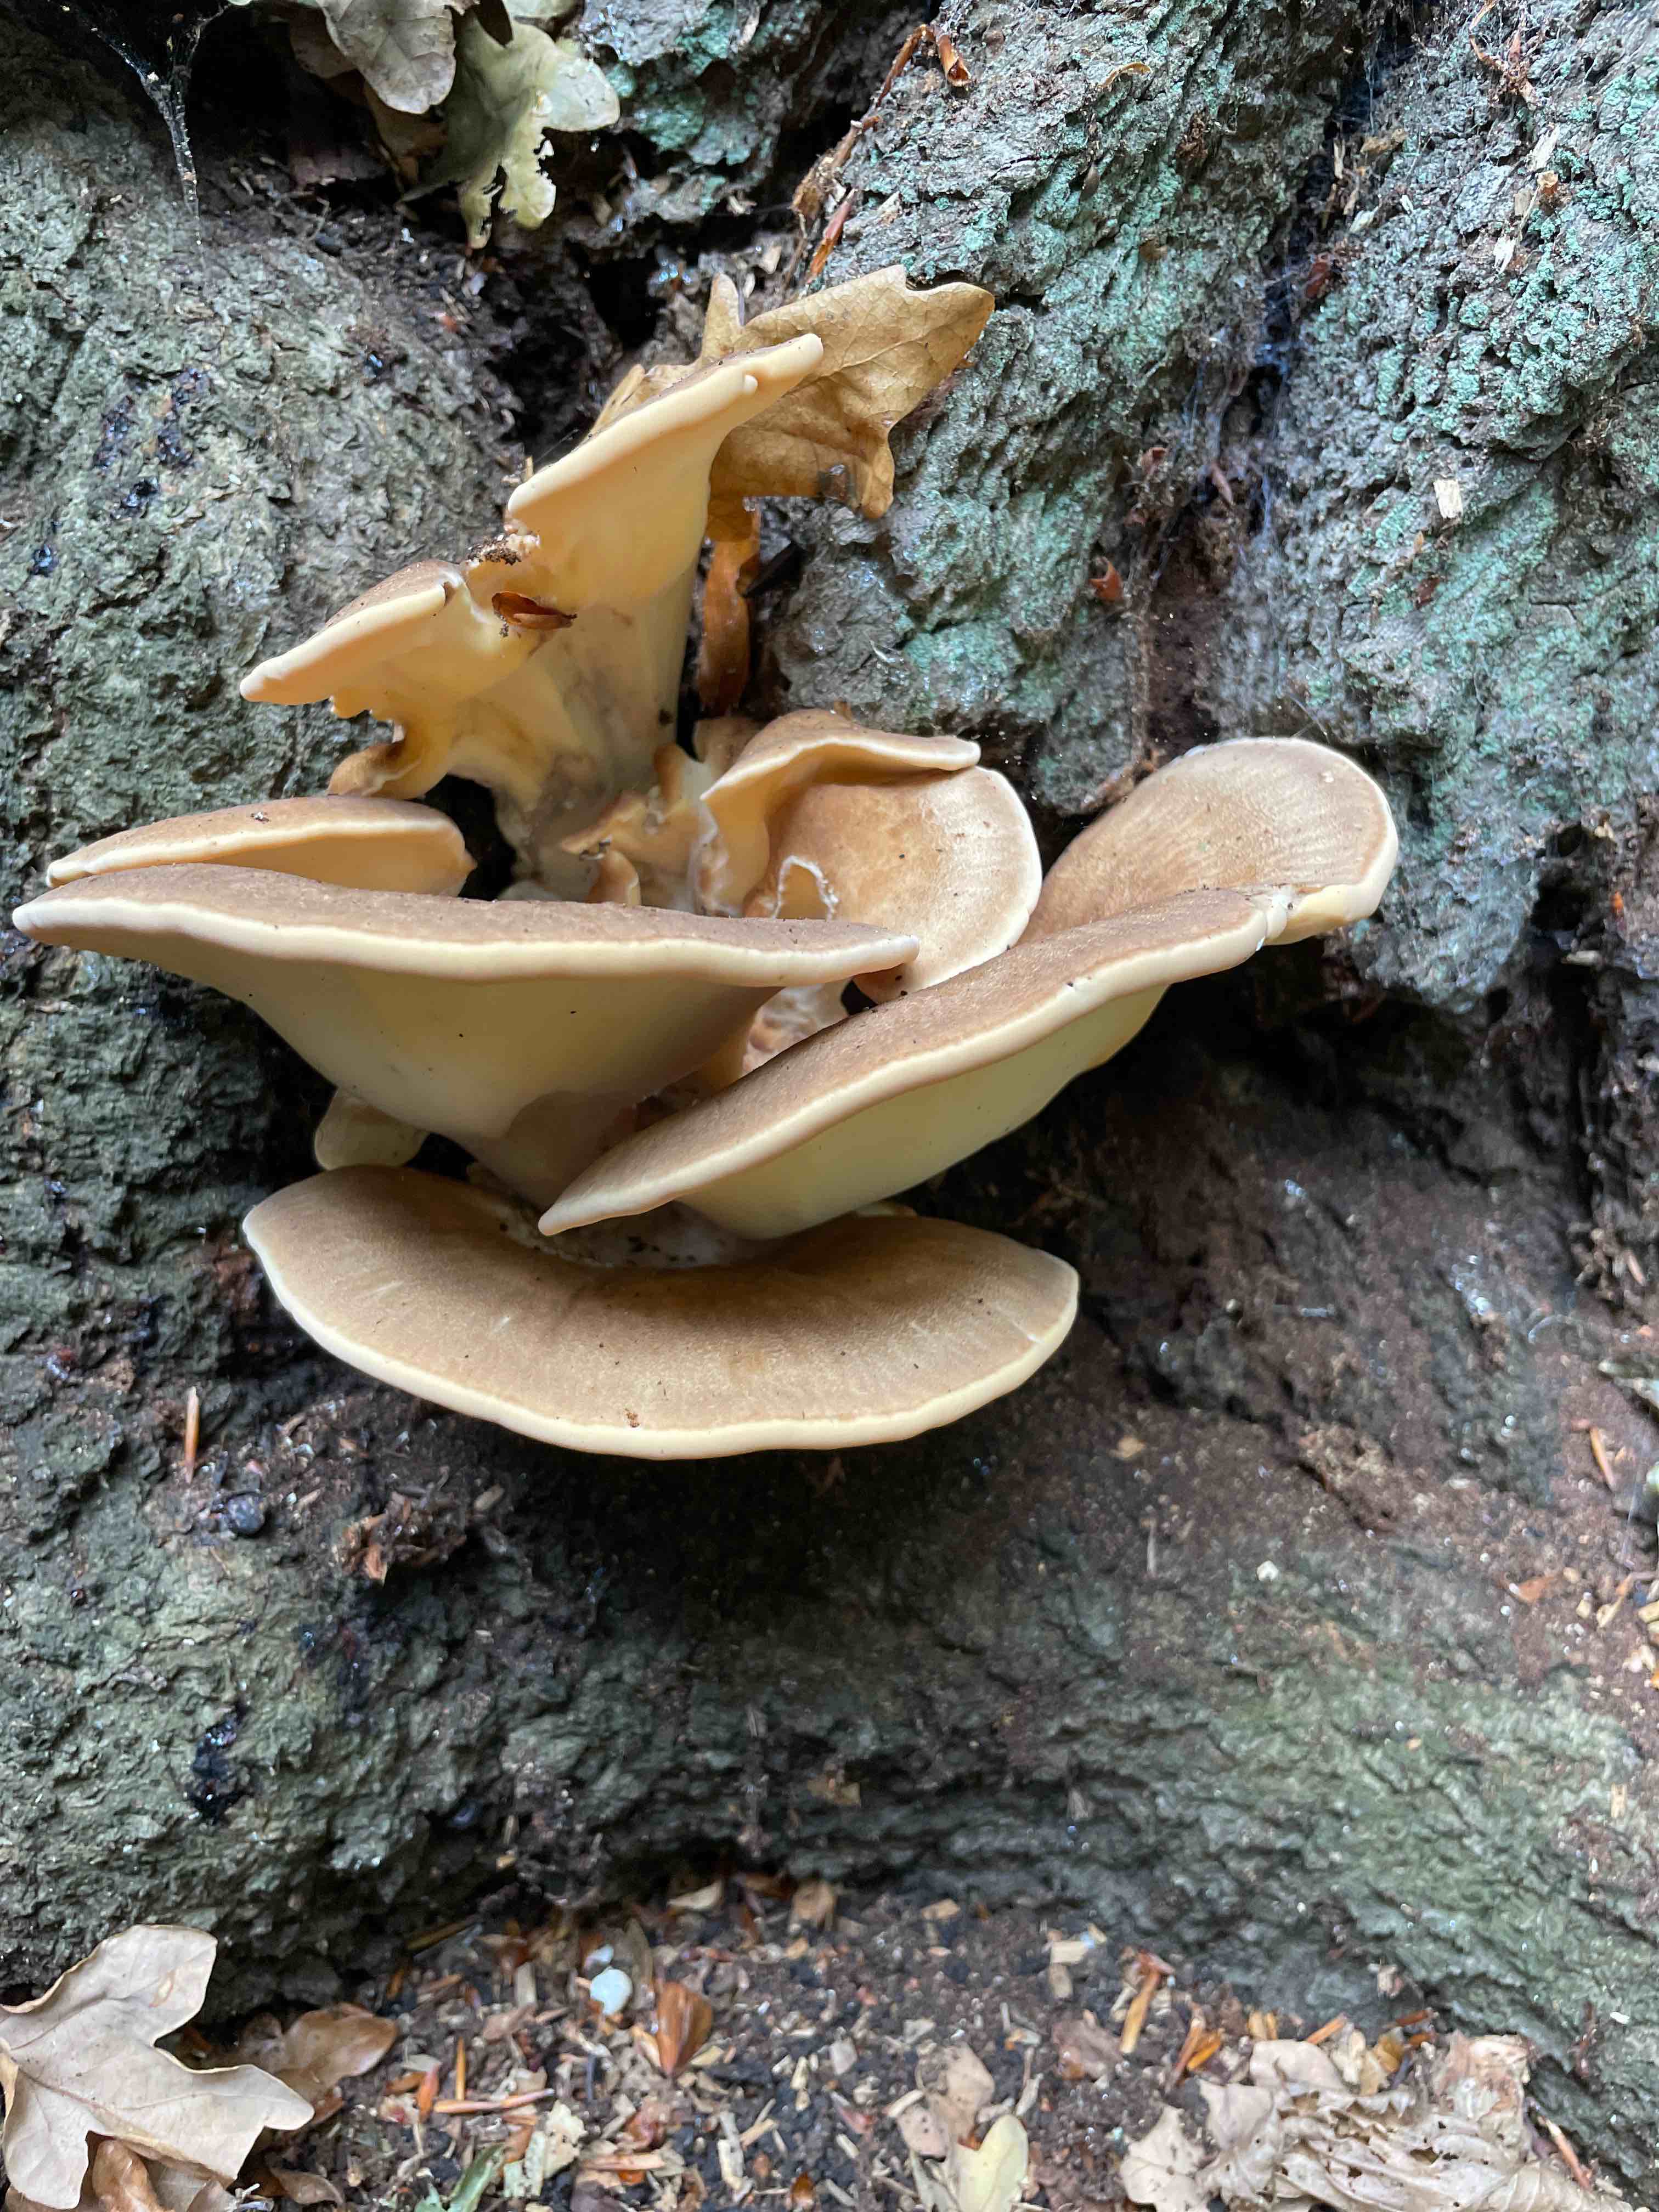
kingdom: Fungi
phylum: Basidiomycota
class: Agaricomycetes
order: Polyporales
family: Meripilaceae
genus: Meripilus
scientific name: Meripilus giganteus
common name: kæmpeporesvamp
